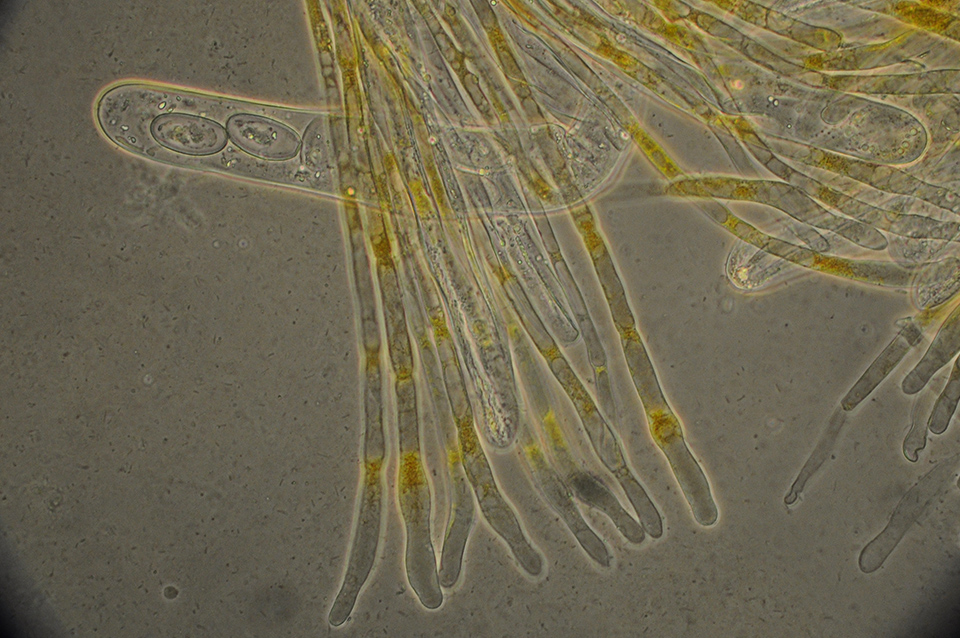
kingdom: Fungi
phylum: Ascomycota
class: Pezizomycetes
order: Pezizales
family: Pyronemataceae
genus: Cheilymenia
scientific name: Cheilymenia
